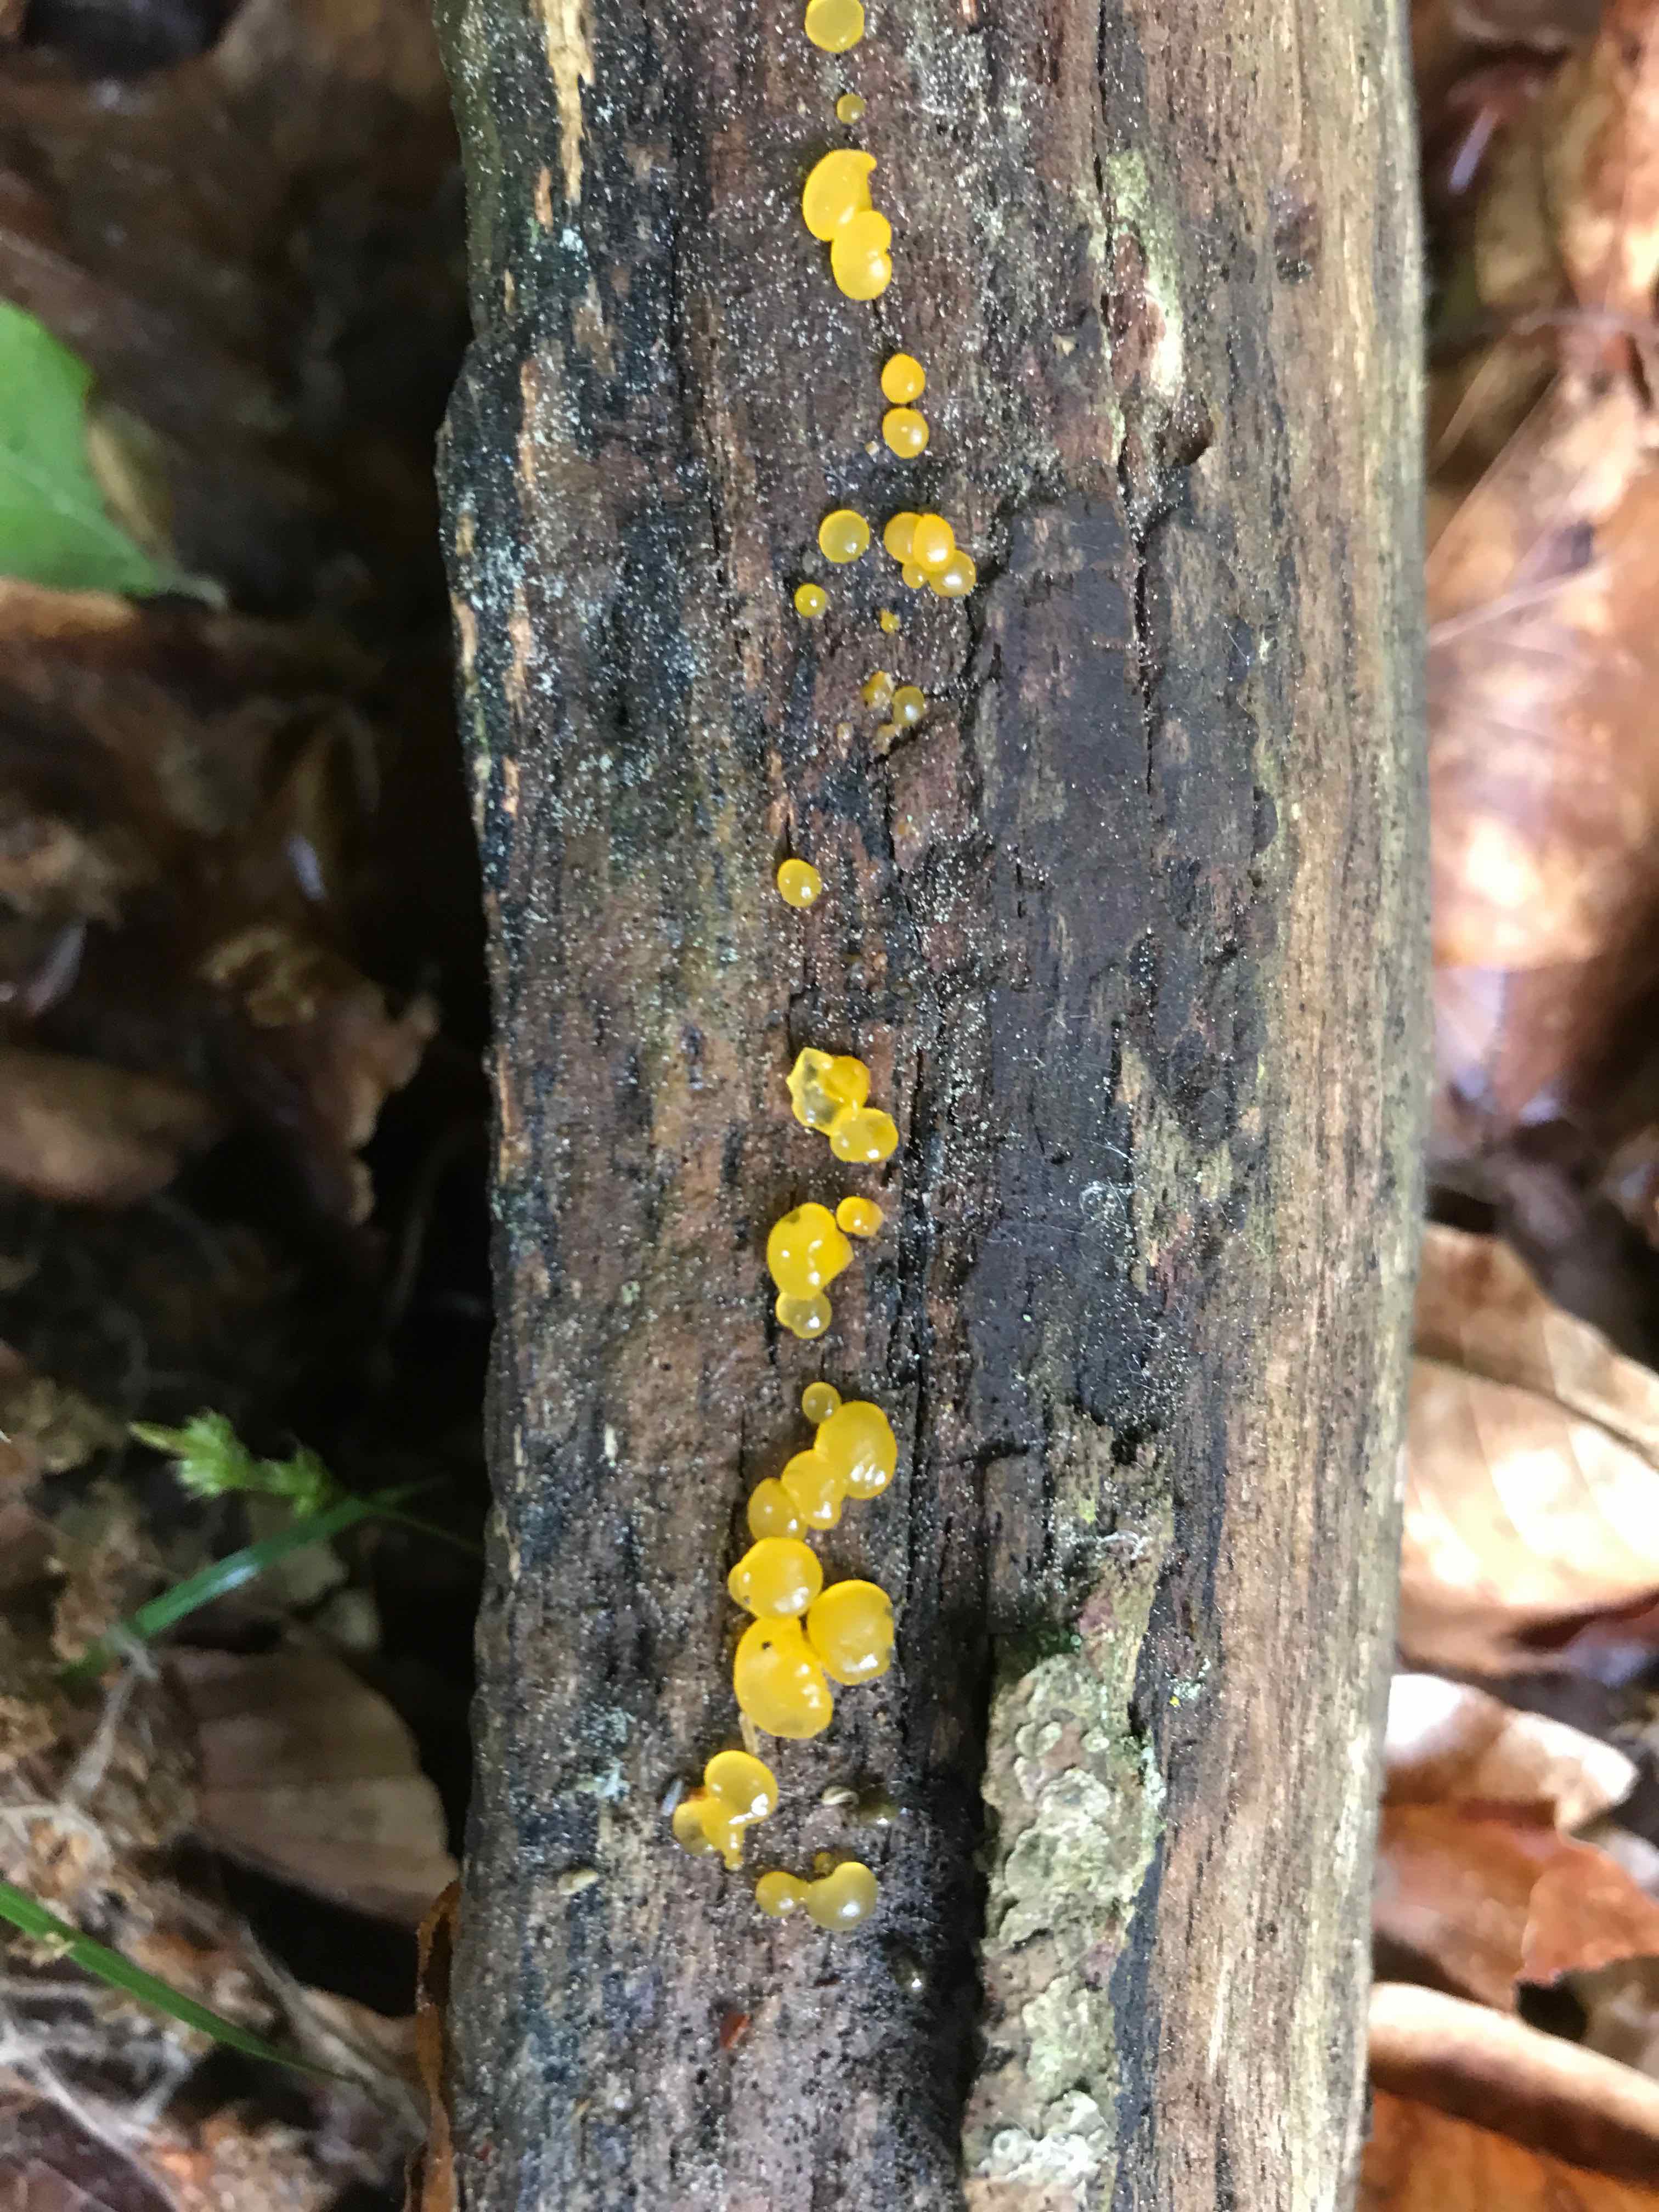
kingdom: Fungi
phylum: Basidiomycota
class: Dacrymycetes
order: Dacrymycetales
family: Dacrymycetaceae
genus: Dacrymyces
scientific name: Dacrymyces
